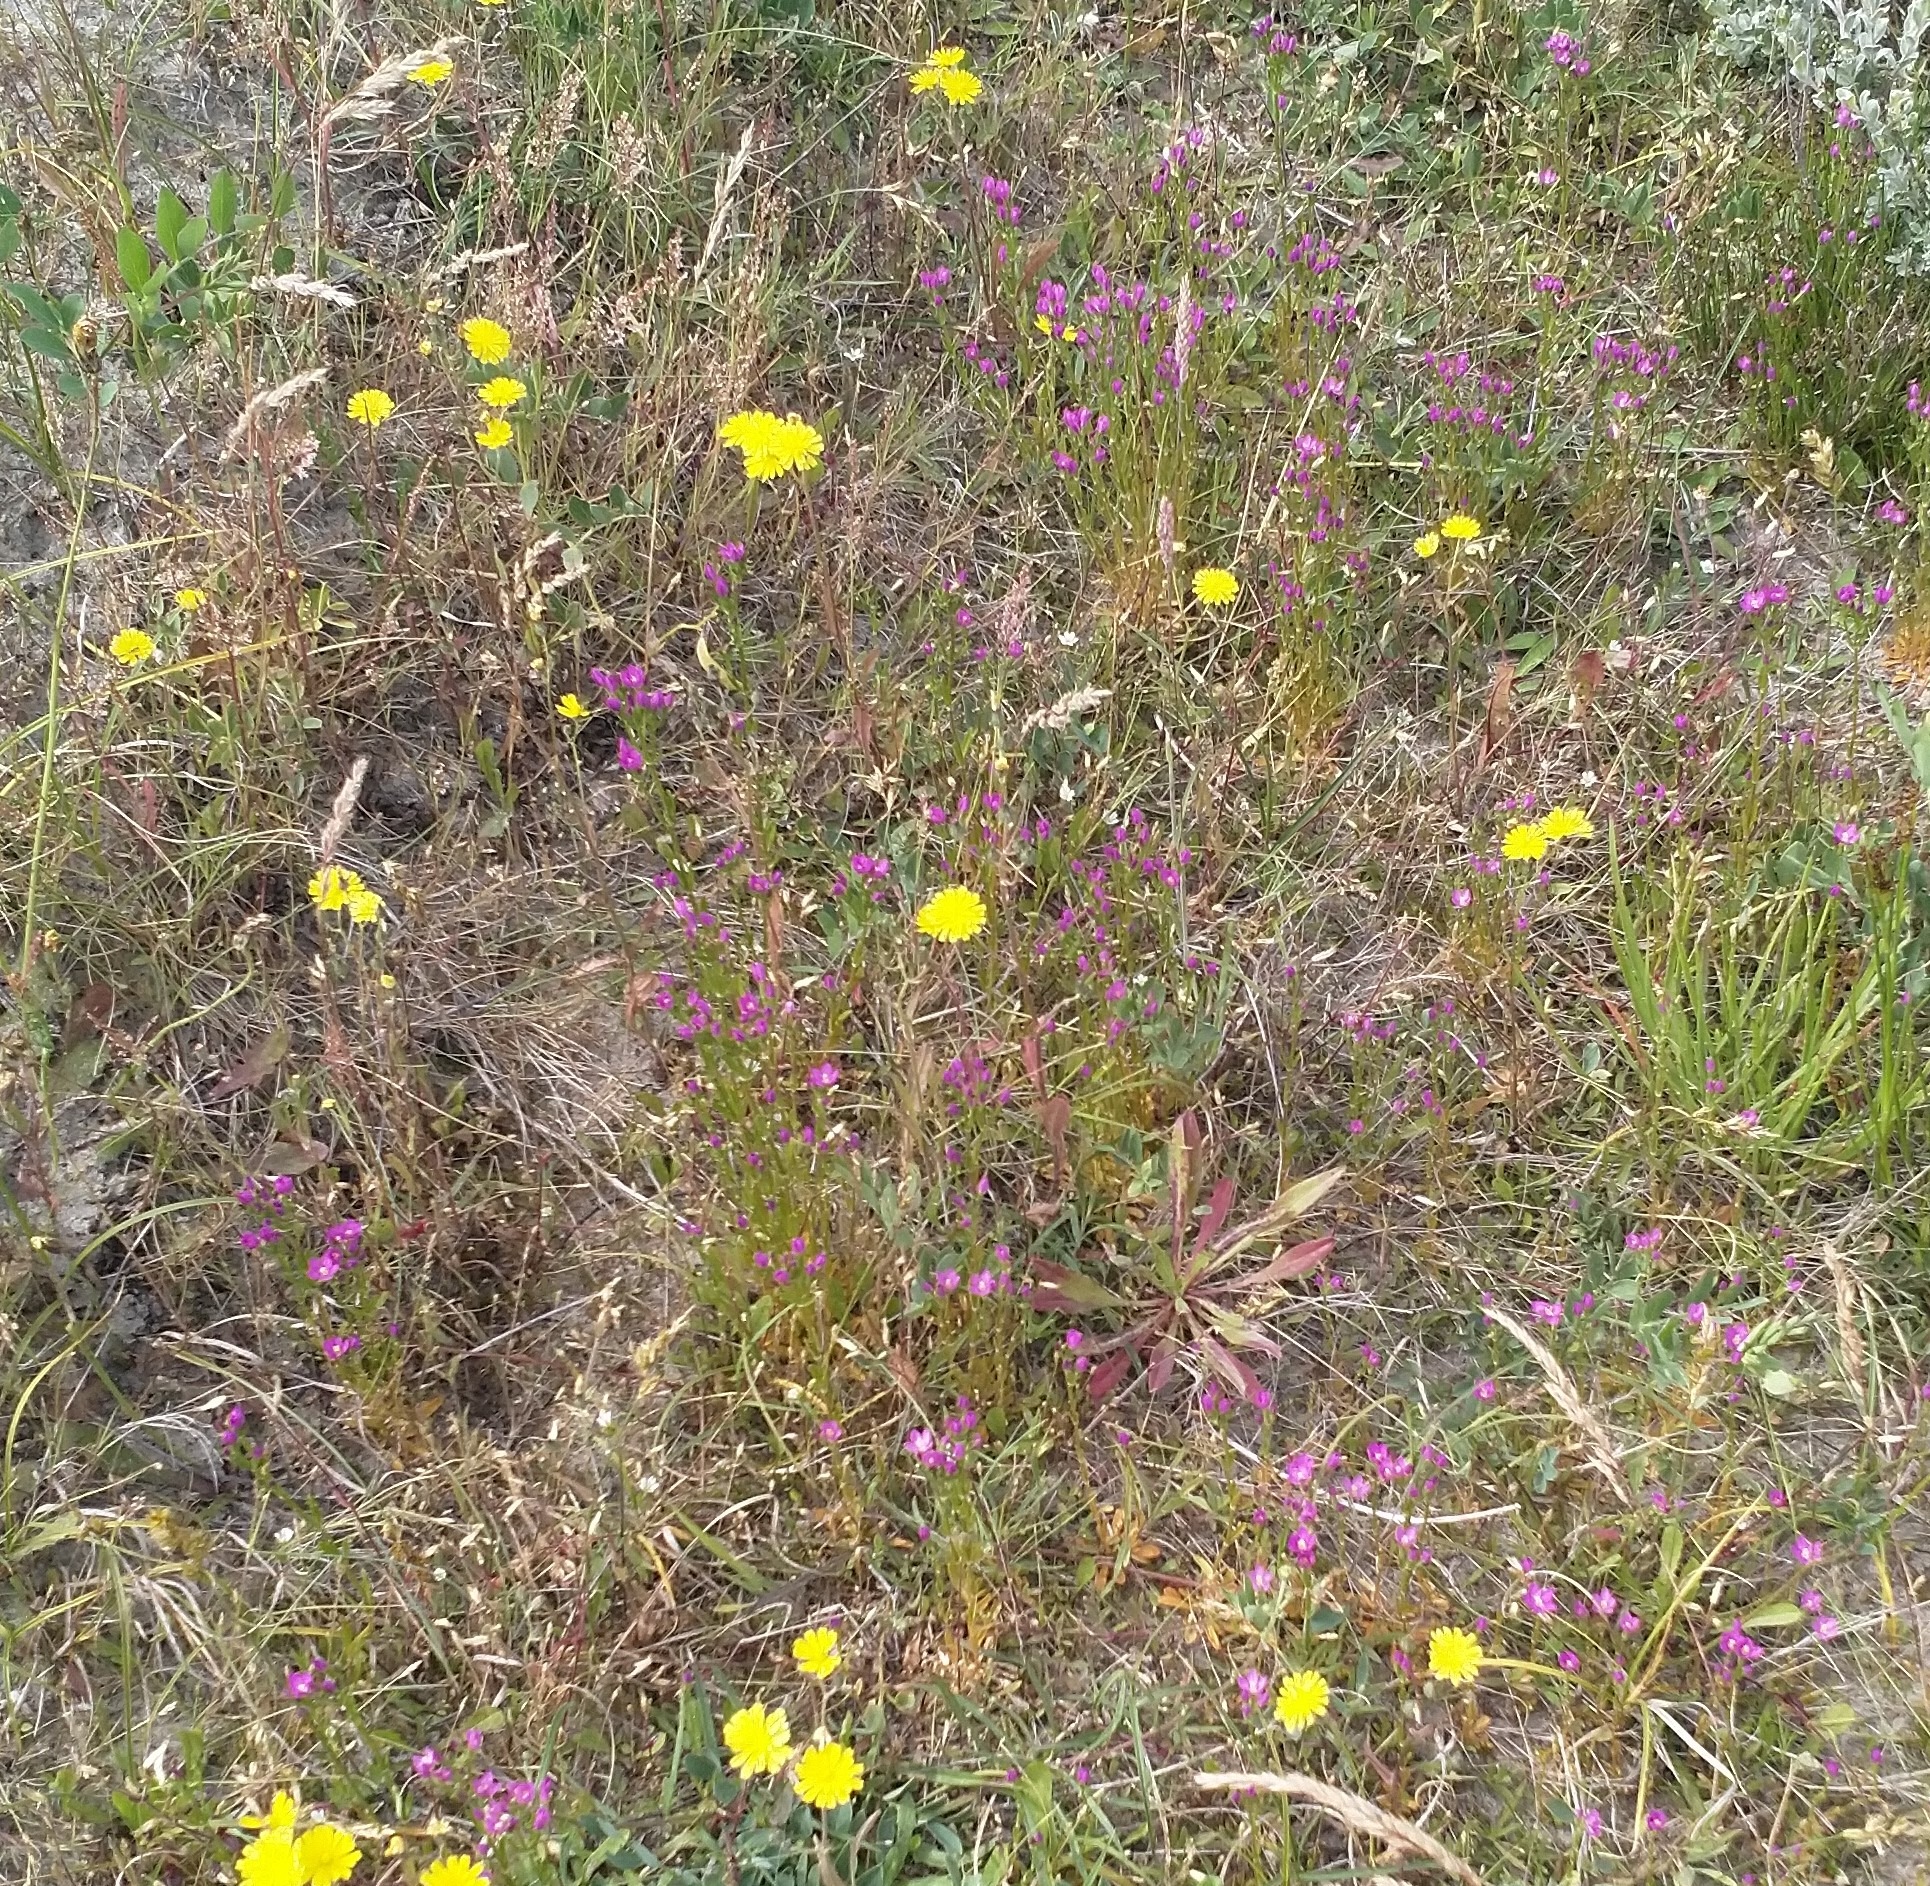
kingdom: Plantae
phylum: Tracheophyta
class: Magnoliopsida
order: Gentianales
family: Gentianaceae
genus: Centaurium
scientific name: Centaurium littorale
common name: Strand-tusindgylden
